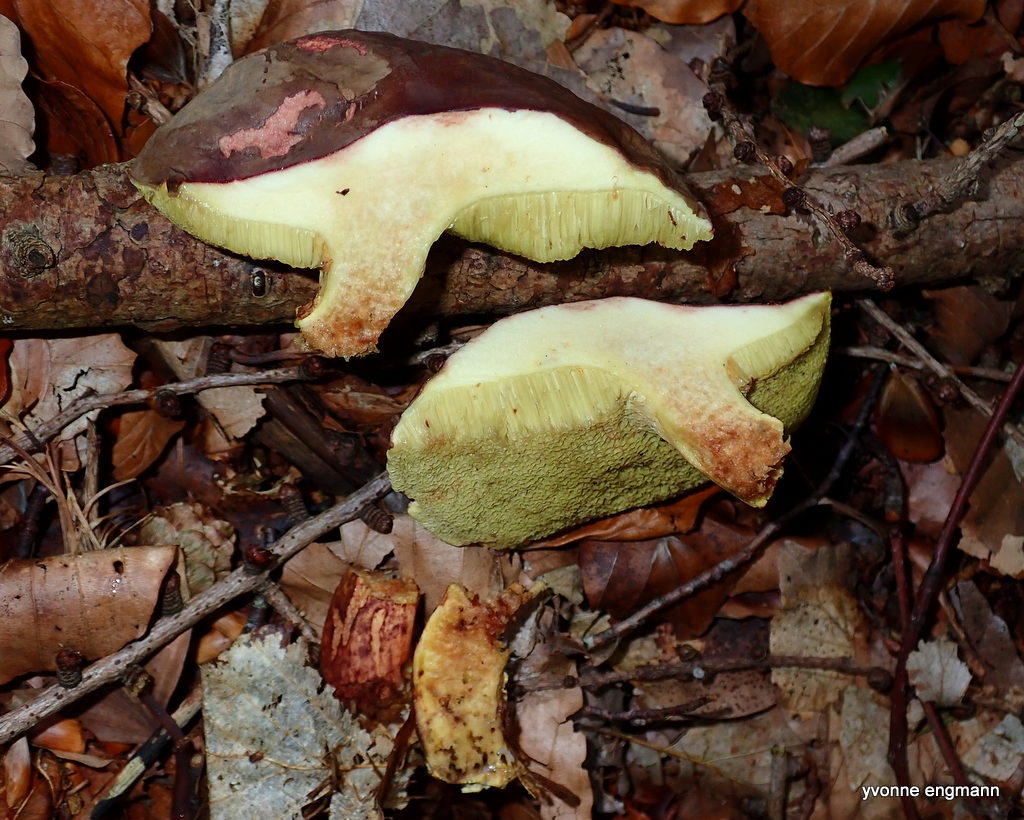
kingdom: Fungi
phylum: Basidiomycota
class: Agaricomycetes
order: Boletales
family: Boletaceae
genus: Xerocomellus
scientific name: Xerocomellus pruinatus
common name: dugget rørhat
